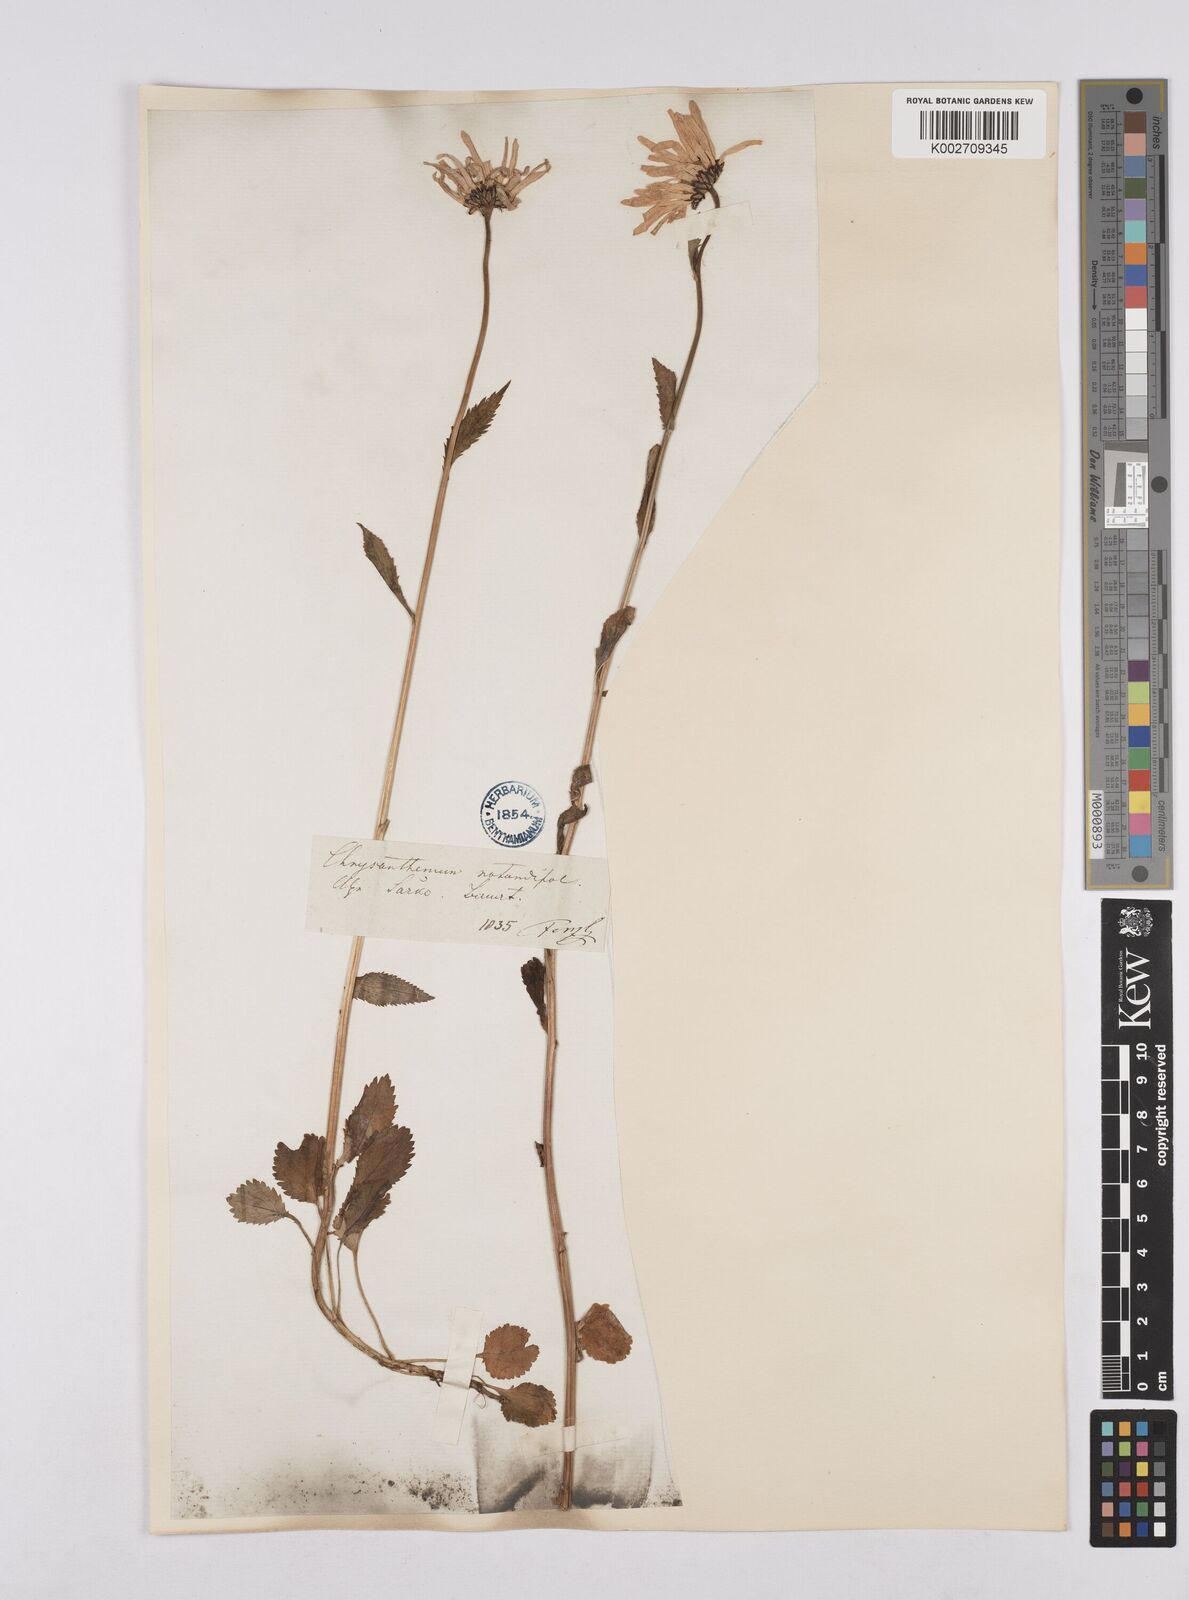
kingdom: Plantae
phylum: Tracheophyta
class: Magnoliopsida
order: Asterales
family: Asteraceae
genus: Leucanthemum
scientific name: Leucanthemum rotundifolium
